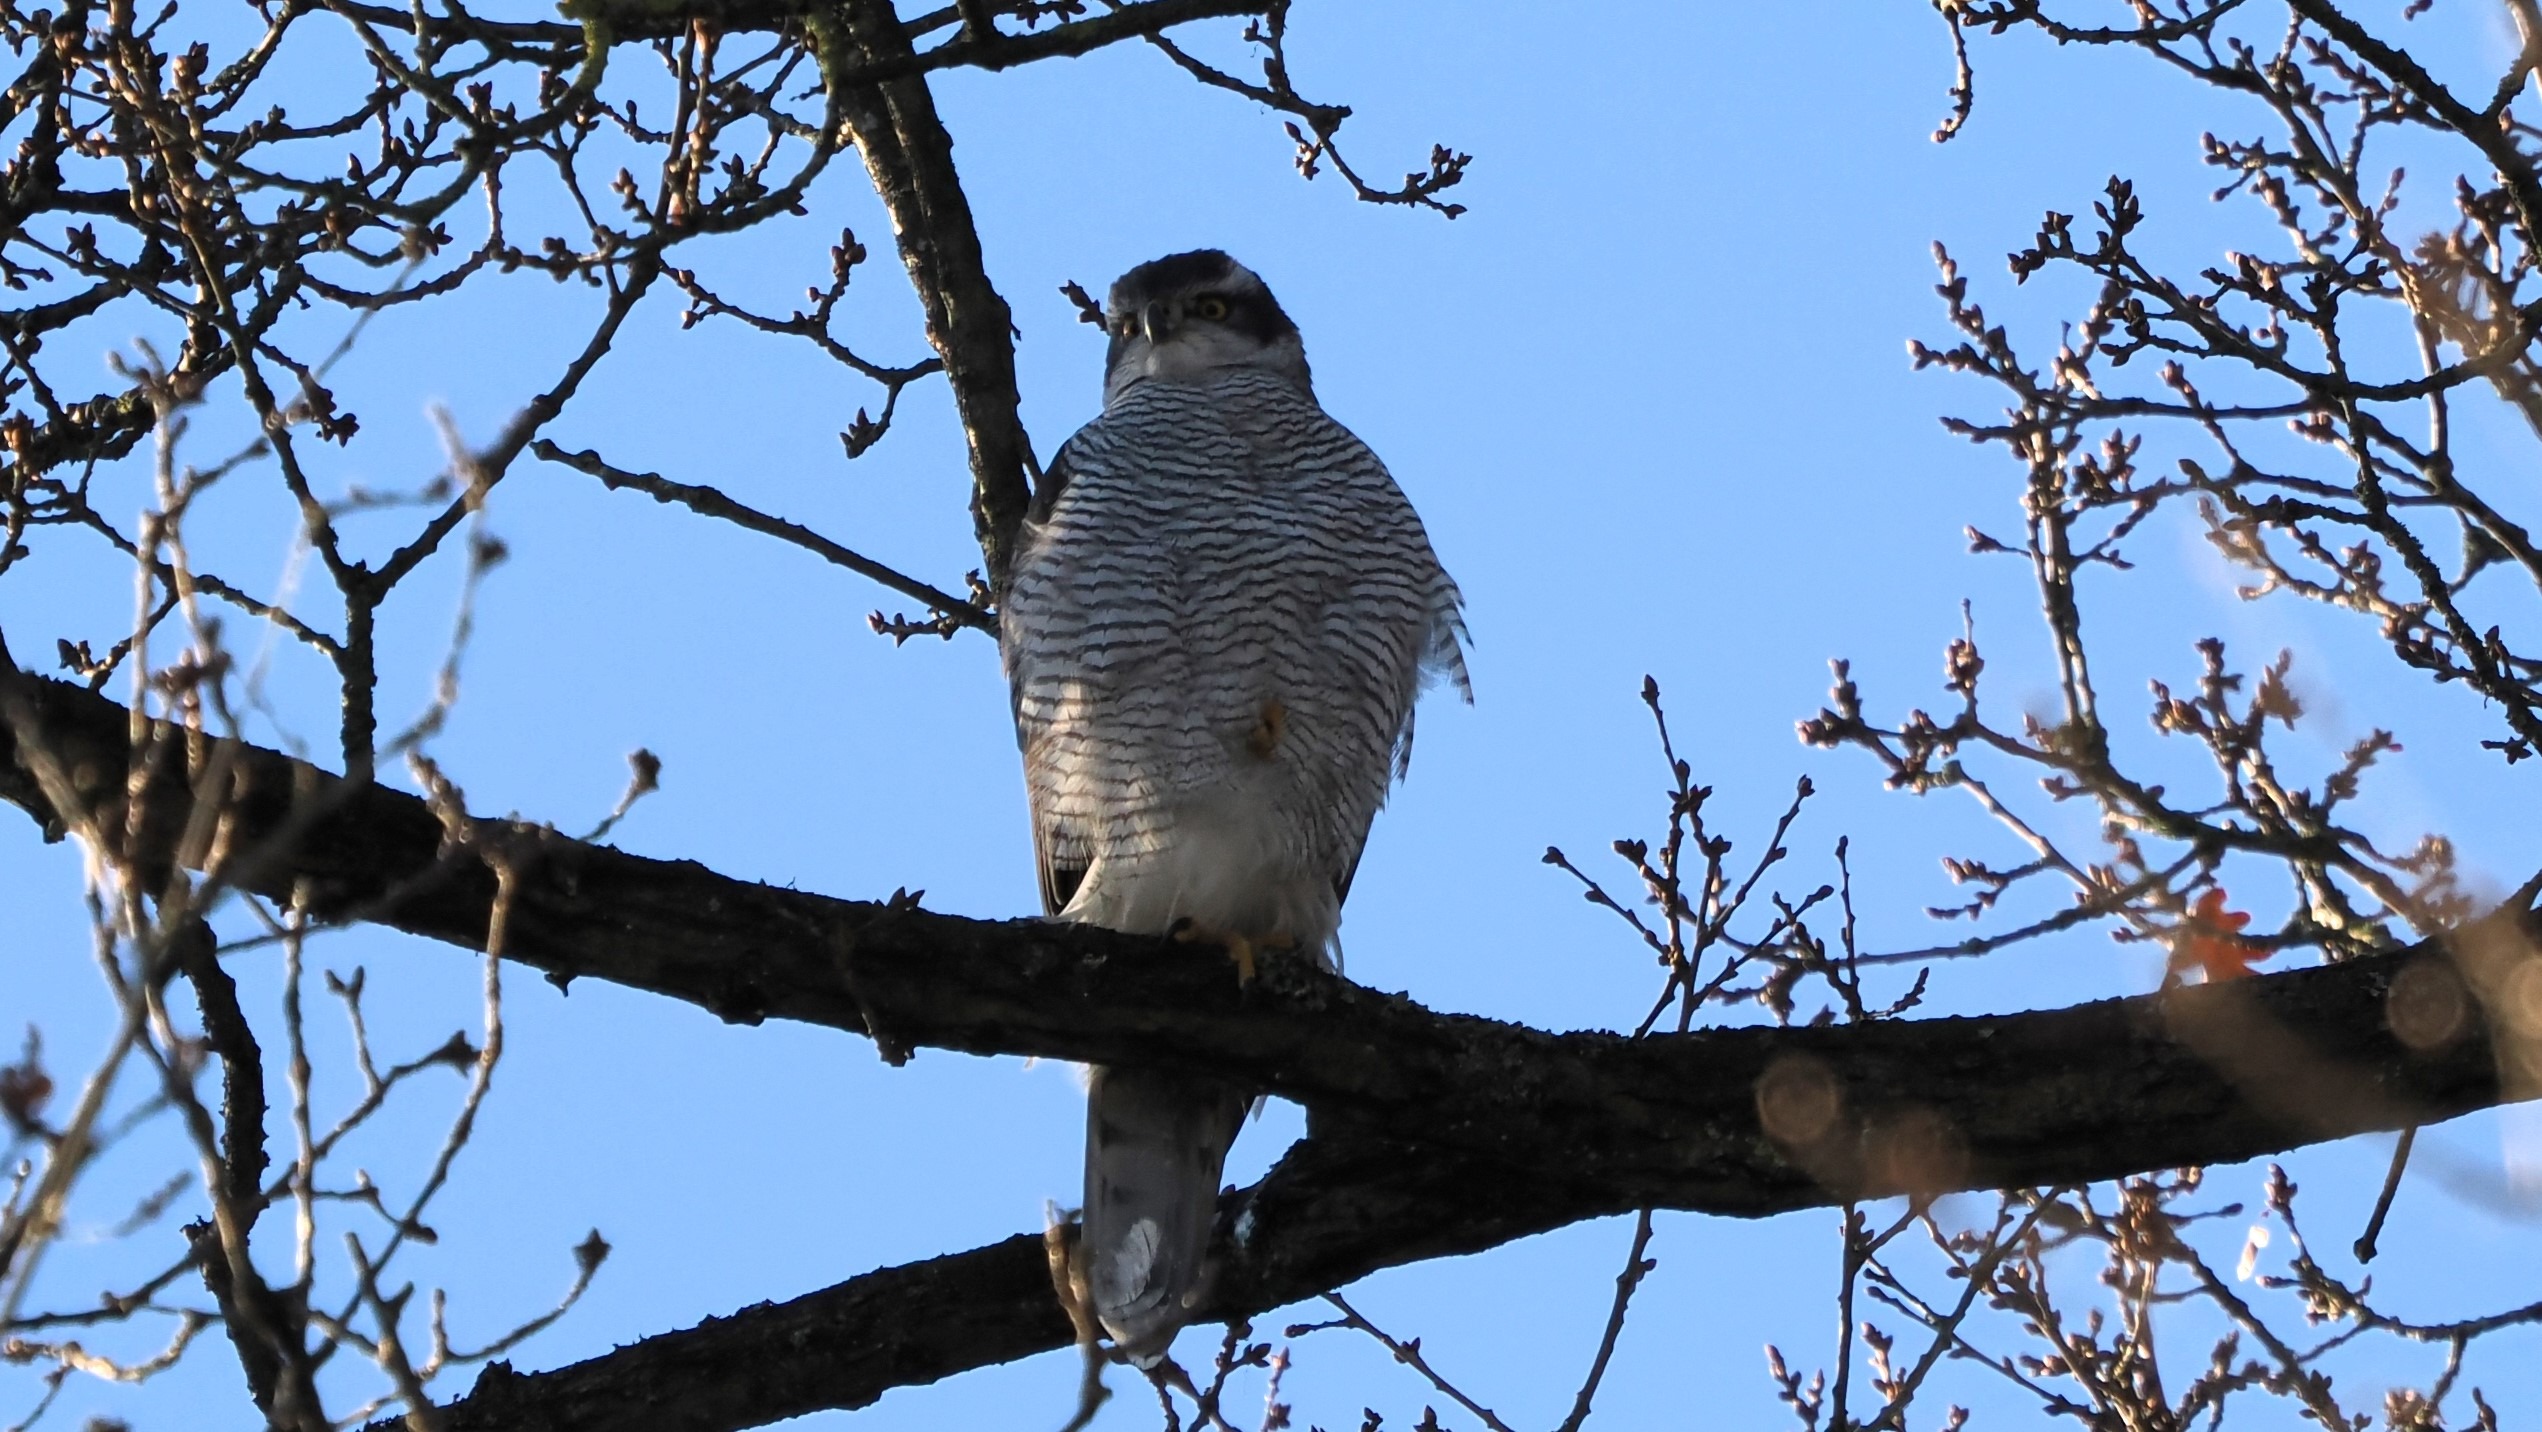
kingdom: Animalia
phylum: Chordata
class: Aves
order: Accipitriformes
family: Accipitridae
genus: Accipiter
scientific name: Accipiter gentilis
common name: Duehøg
